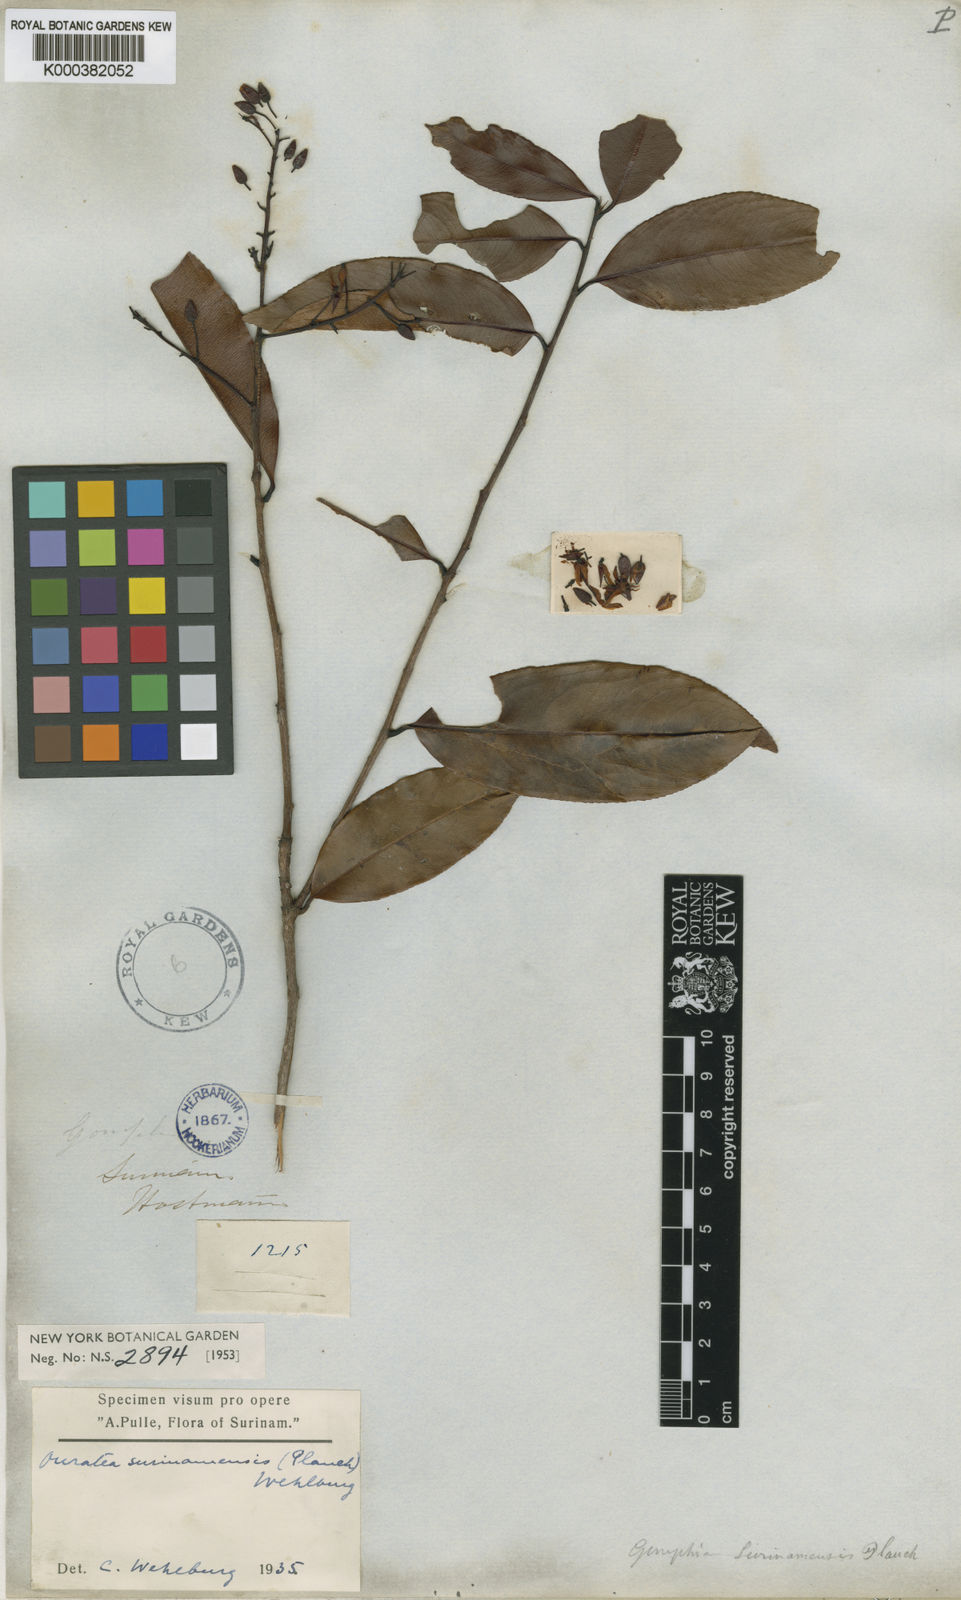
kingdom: Plantae
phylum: Tracheophyta
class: Magnoliopsida
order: Malpighiales
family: Ochnaceae
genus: Ouratea
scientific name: Ouratea cardiosperma
